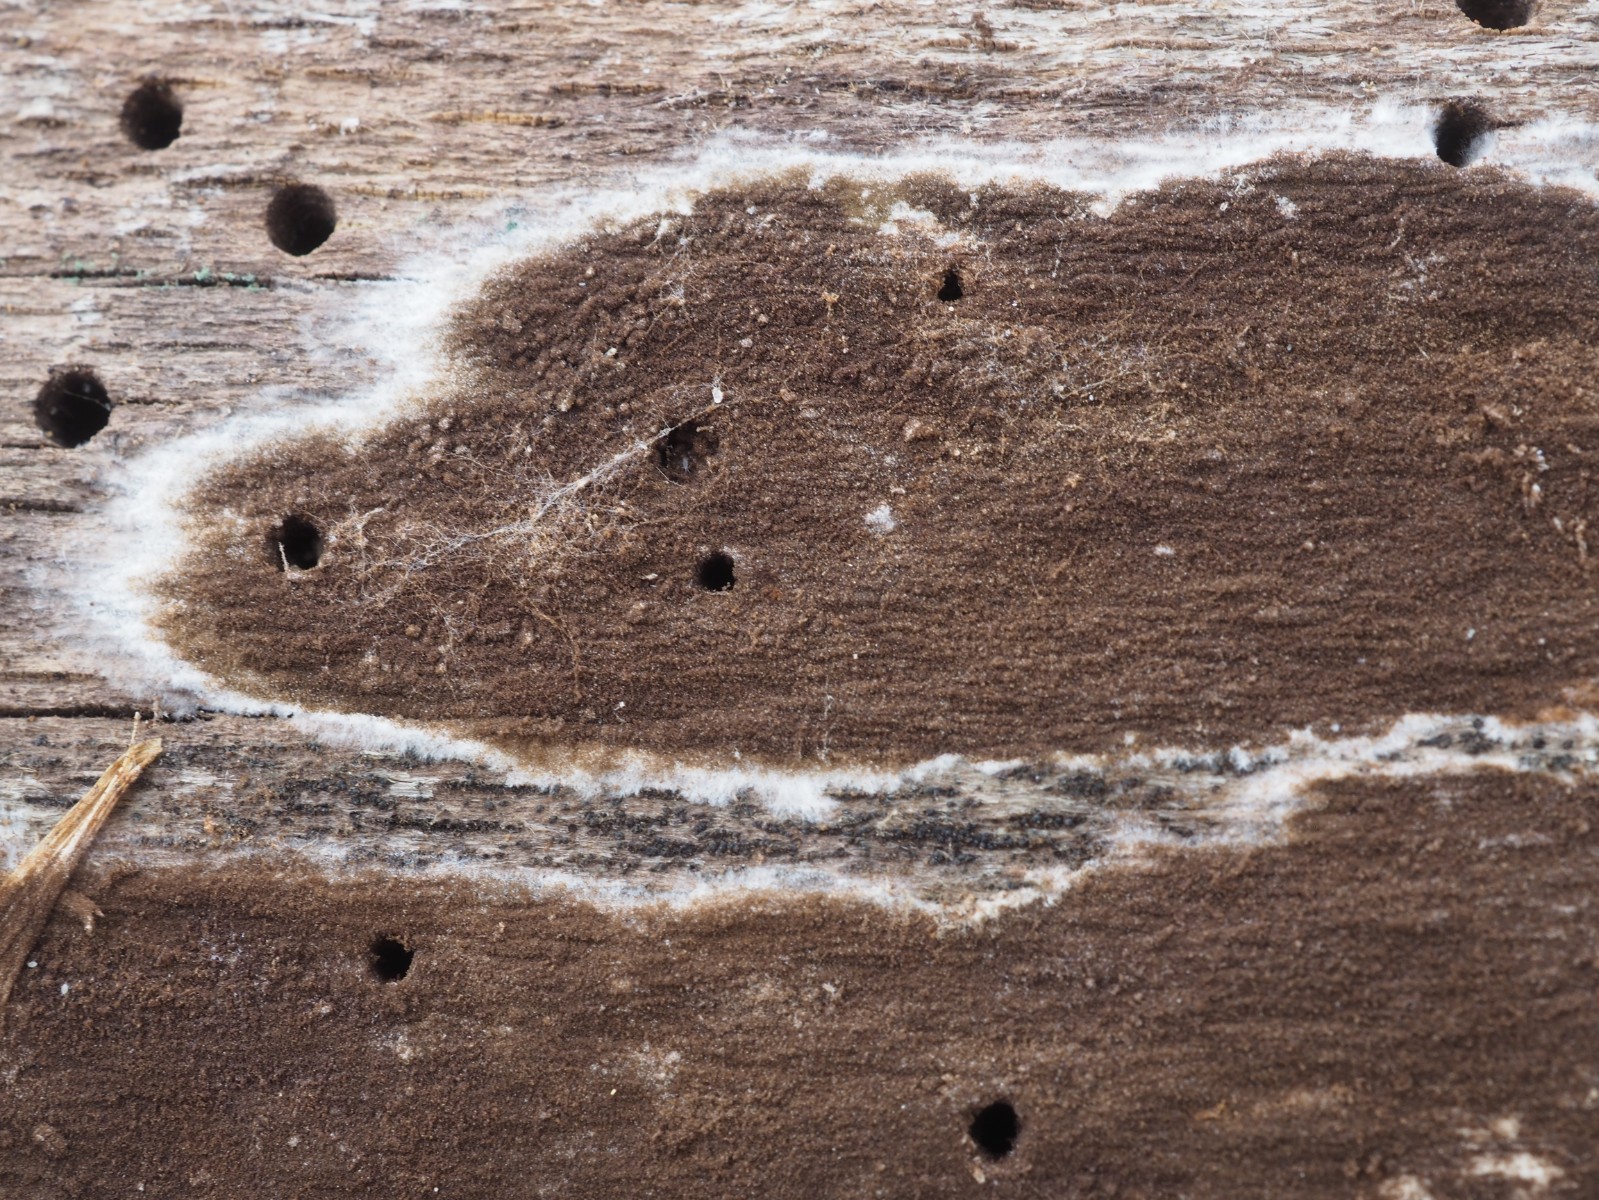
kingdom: Fungi
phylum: Basidiomycota
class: Agaricomycetes
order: Thelephorales
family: Thelephoraceae
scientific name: Thelephoraceae
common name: frynsesvampfamilien
